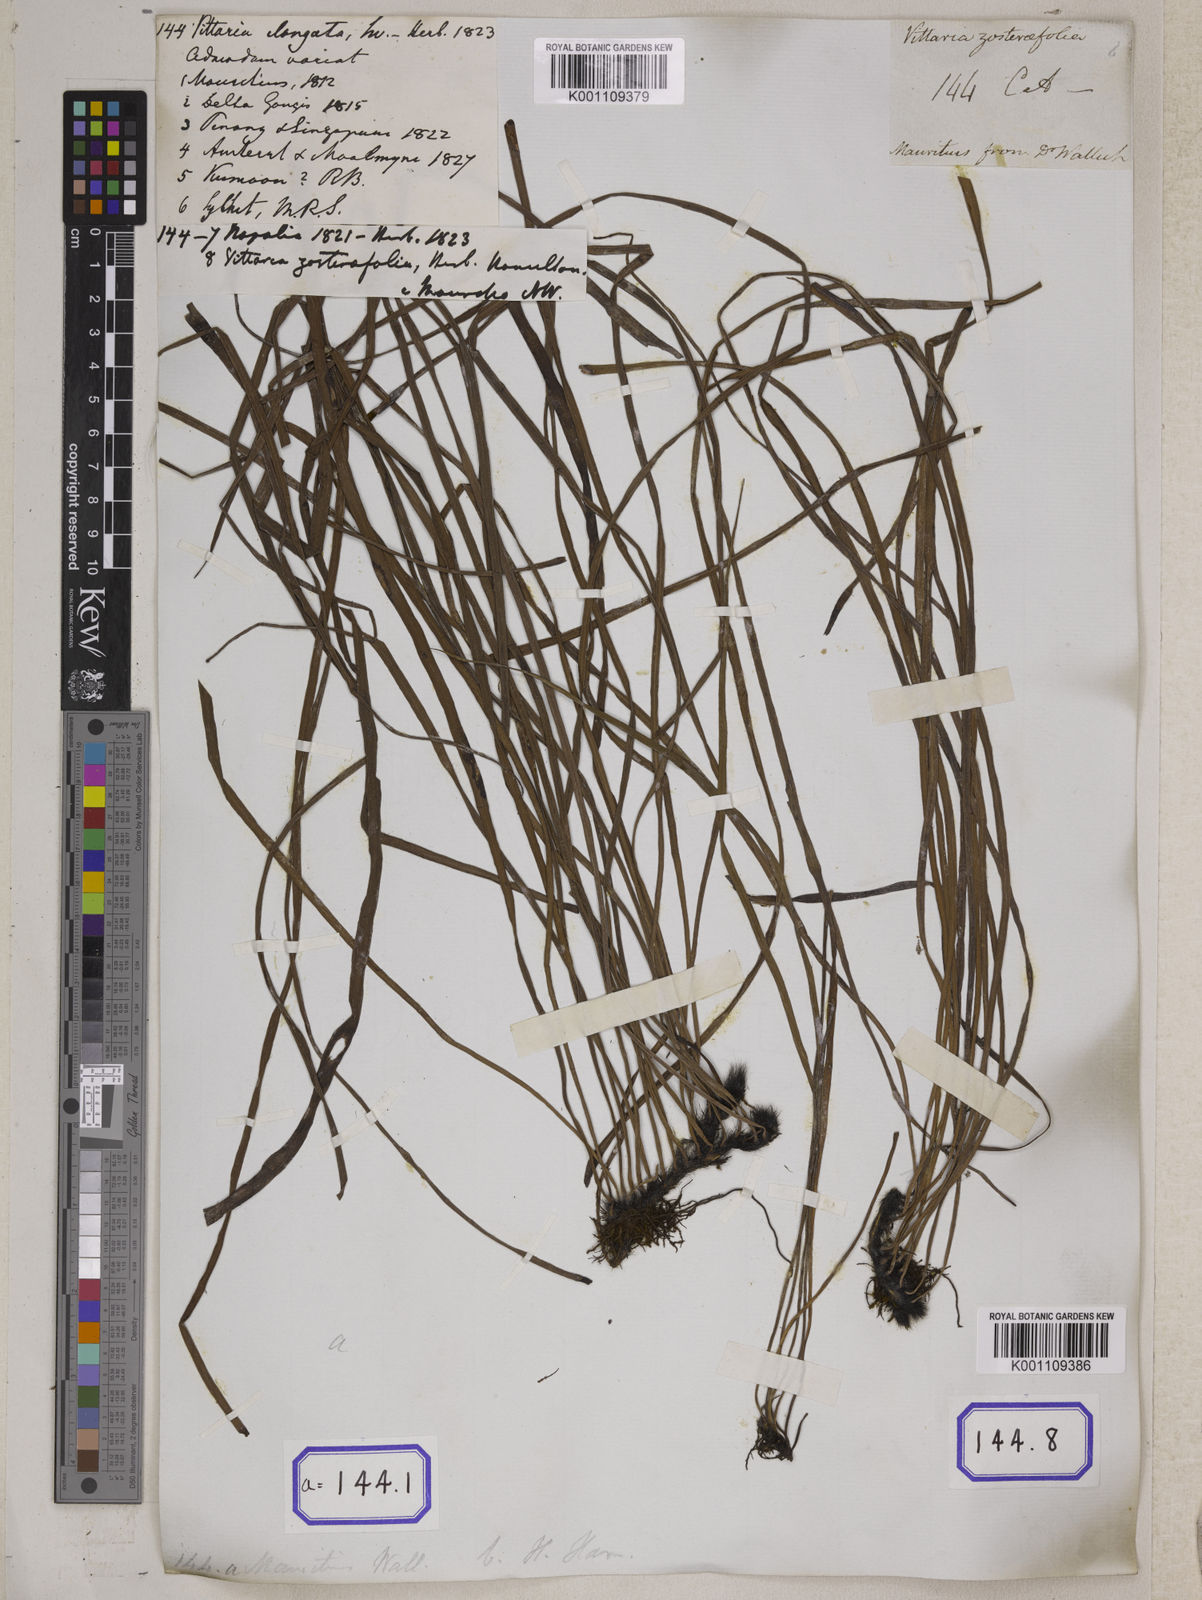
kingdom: Plantae
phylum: Tracheophyta
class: Polypodiopsida
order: Polypodiales
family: Pteridaceae
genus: Haplopteris
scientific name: Haplopteris elongata
